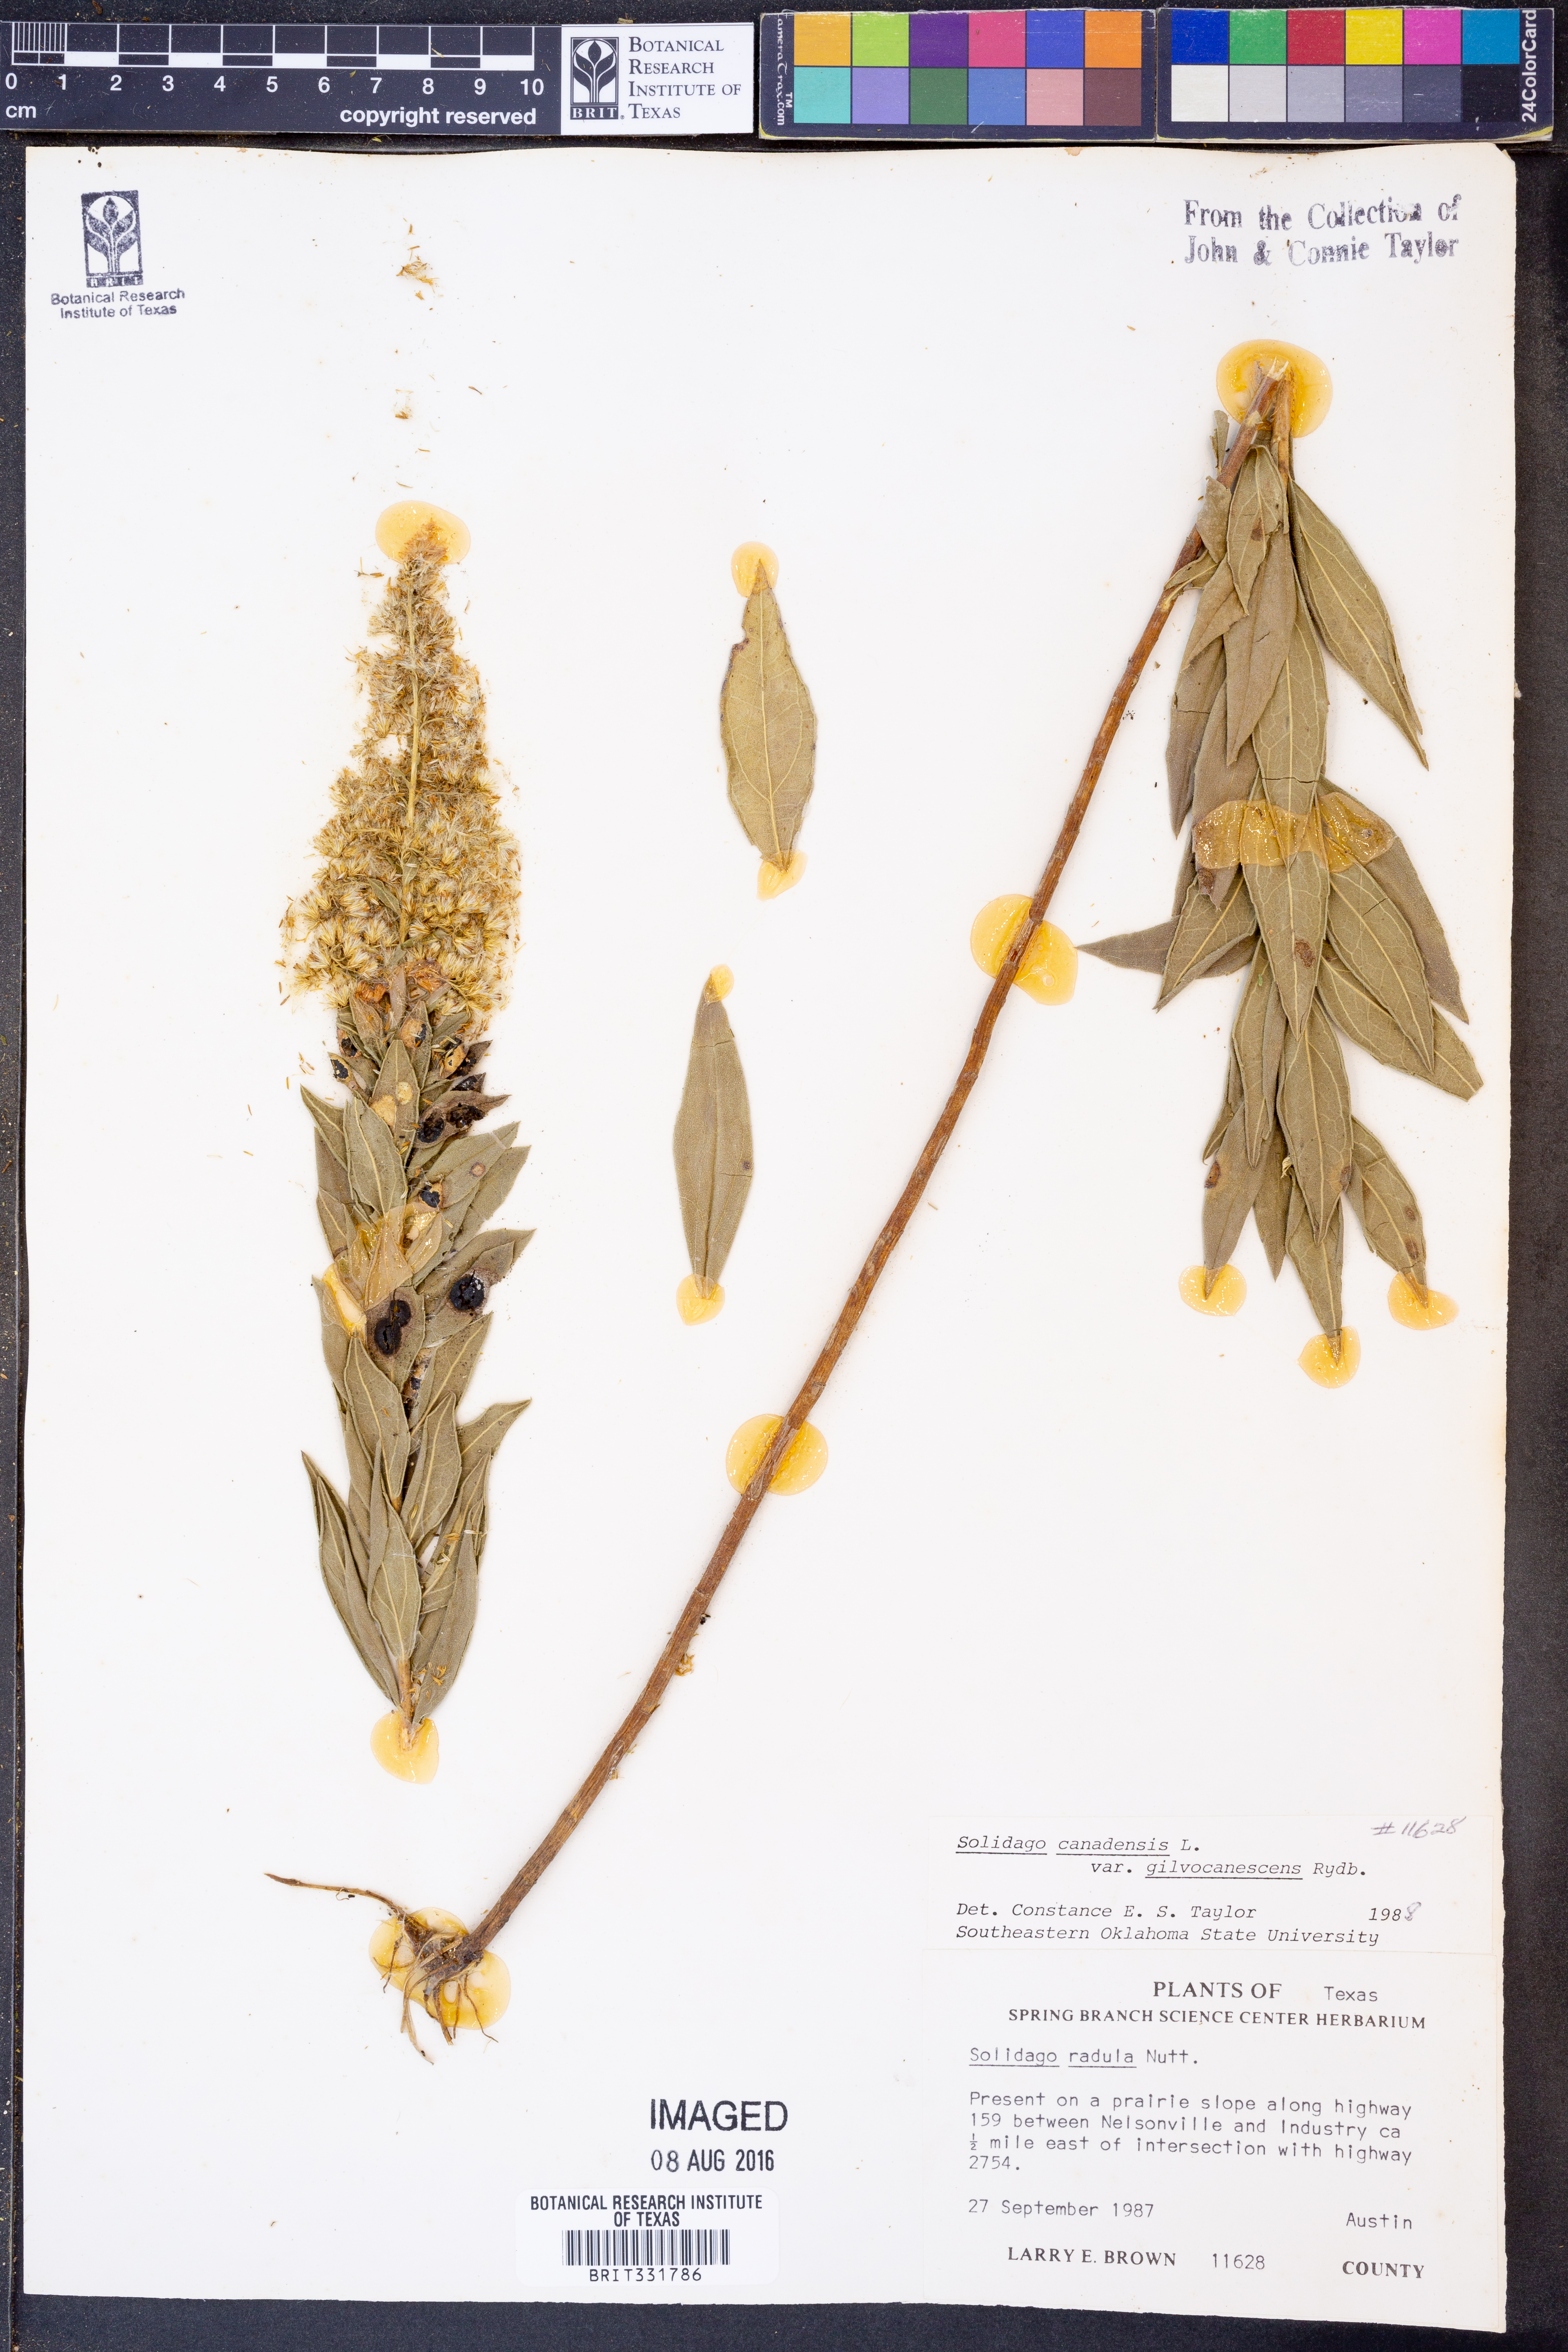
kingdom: Plantae
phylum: Tracheophyta
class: Magnoliopsida
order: Asterales
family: Asteraceae
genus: Solidago
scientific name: Solidago altissima
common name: Late goldenrod
